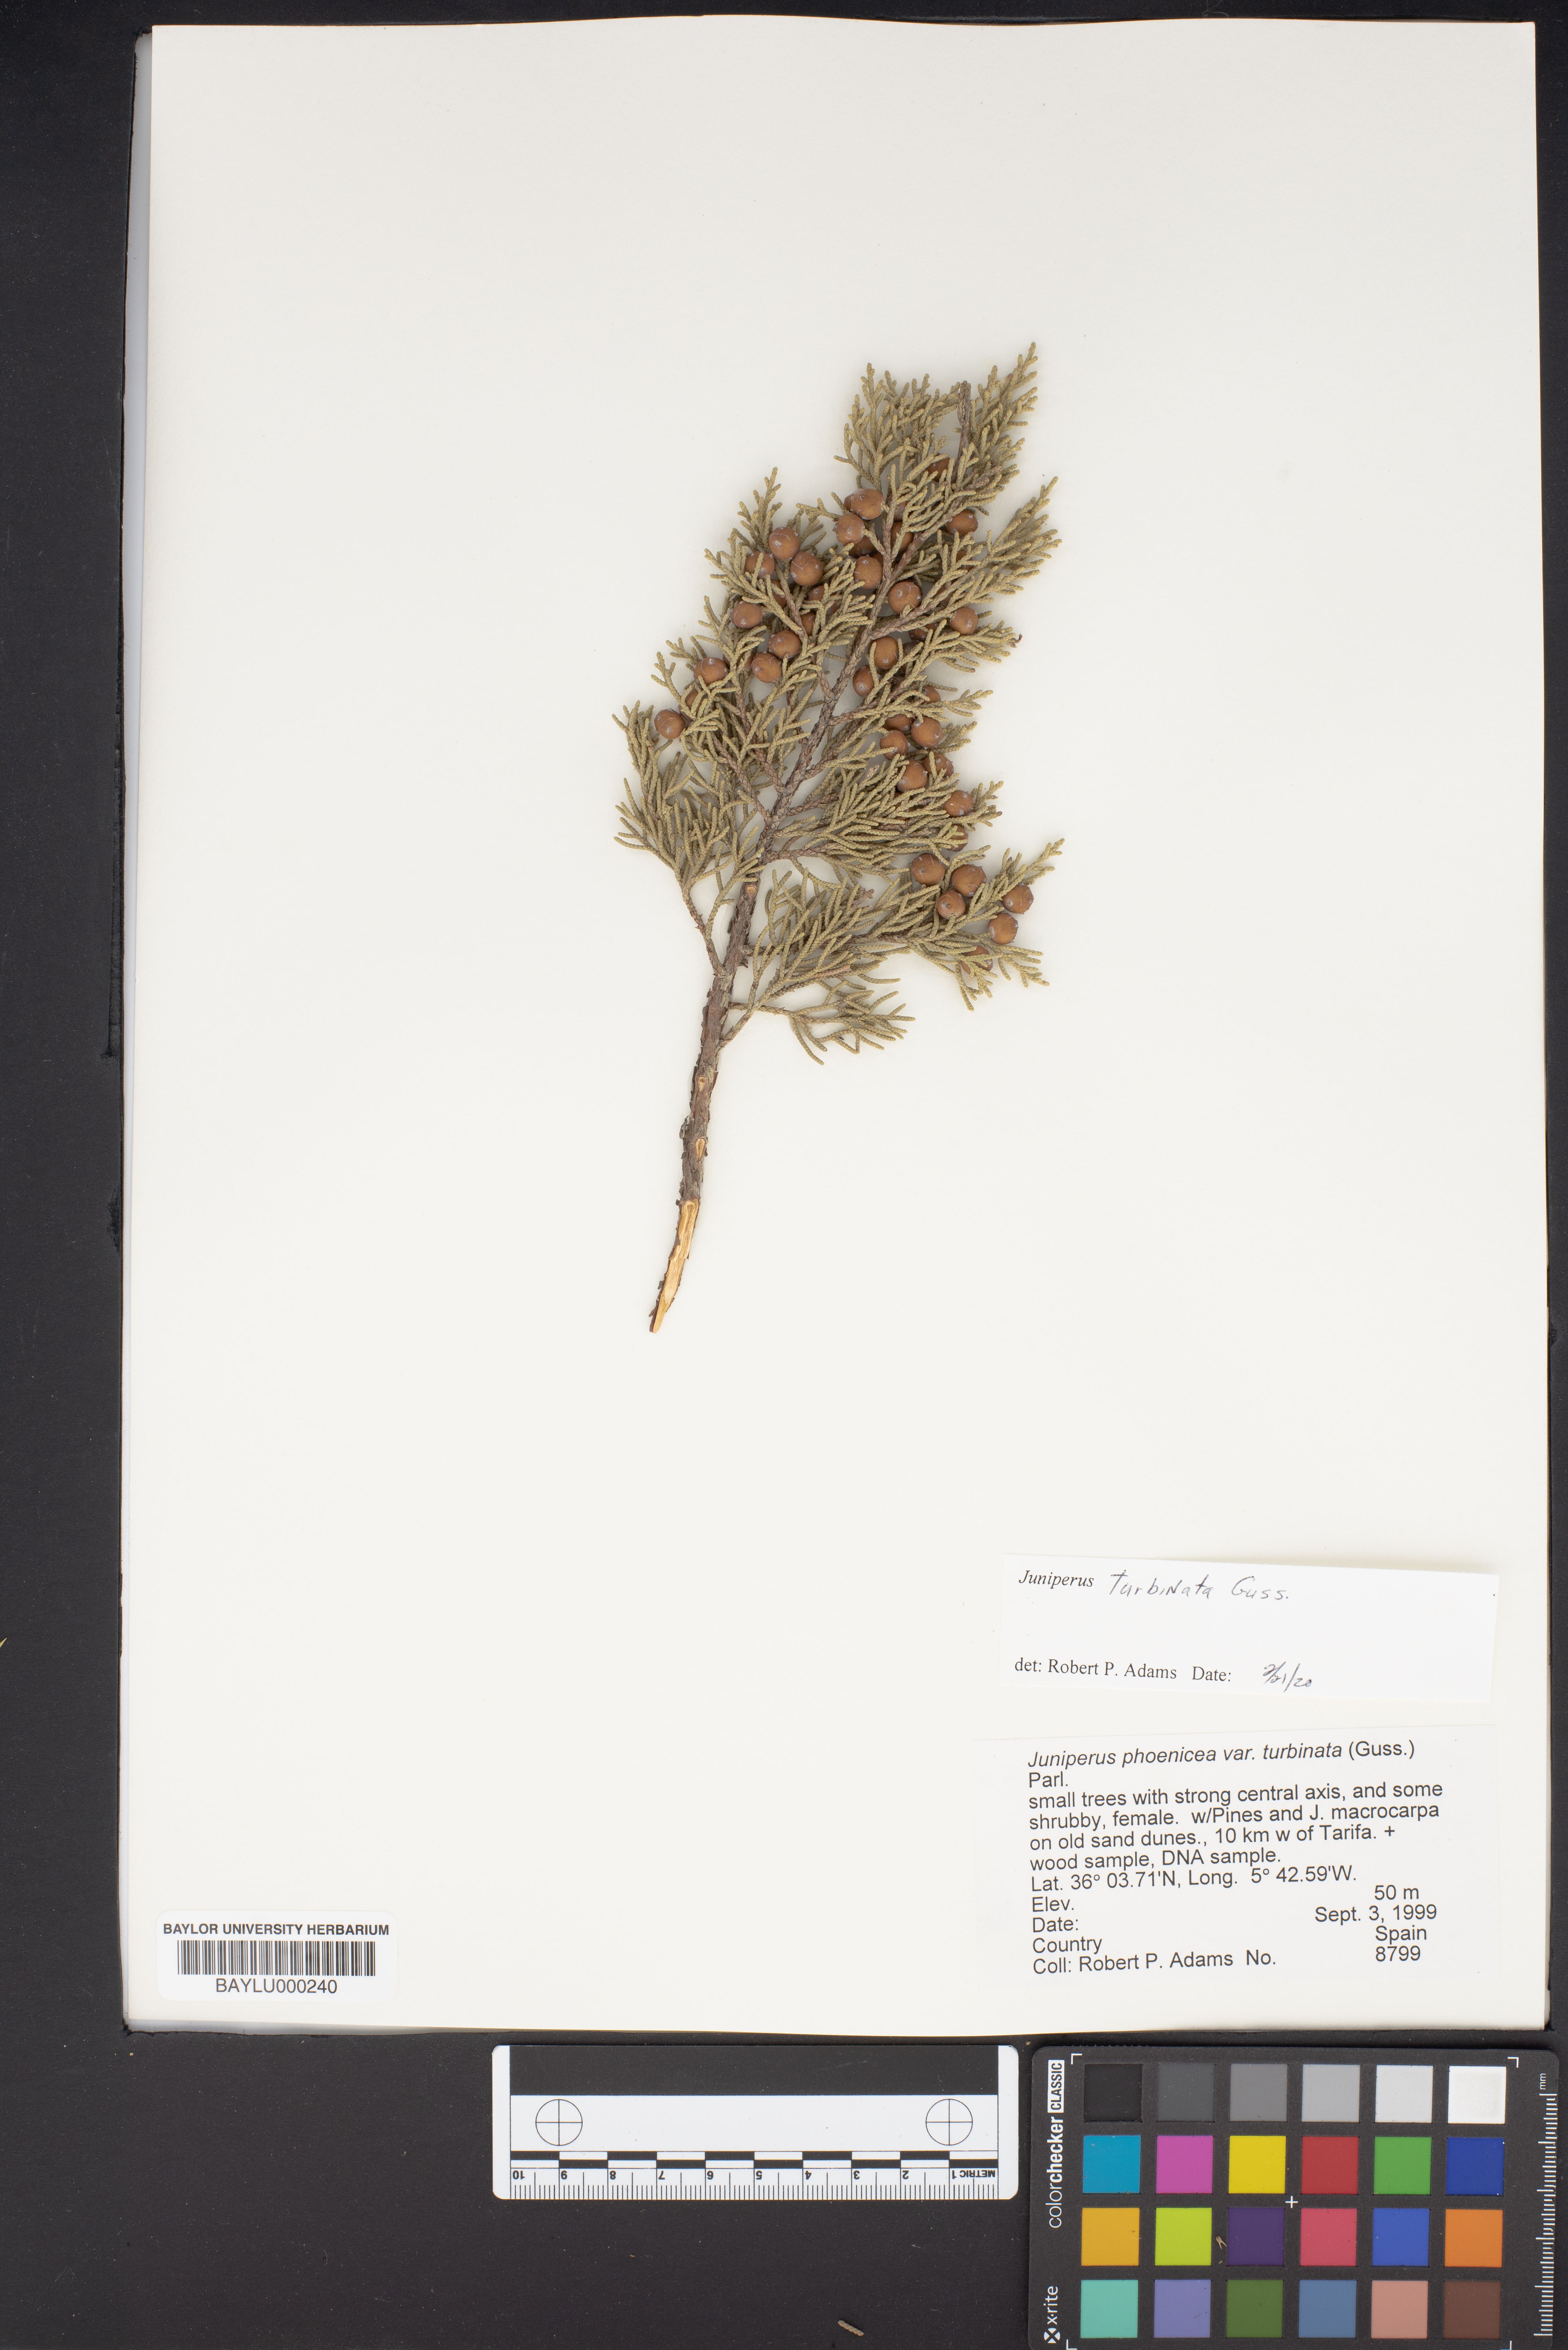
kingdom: Plantae
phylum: Tracheophyta
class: Pinopsida
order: Pinales
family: Cupressaceae
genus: Juniperus
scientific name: Juniperus phoenicea
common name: Phoenician juniper
